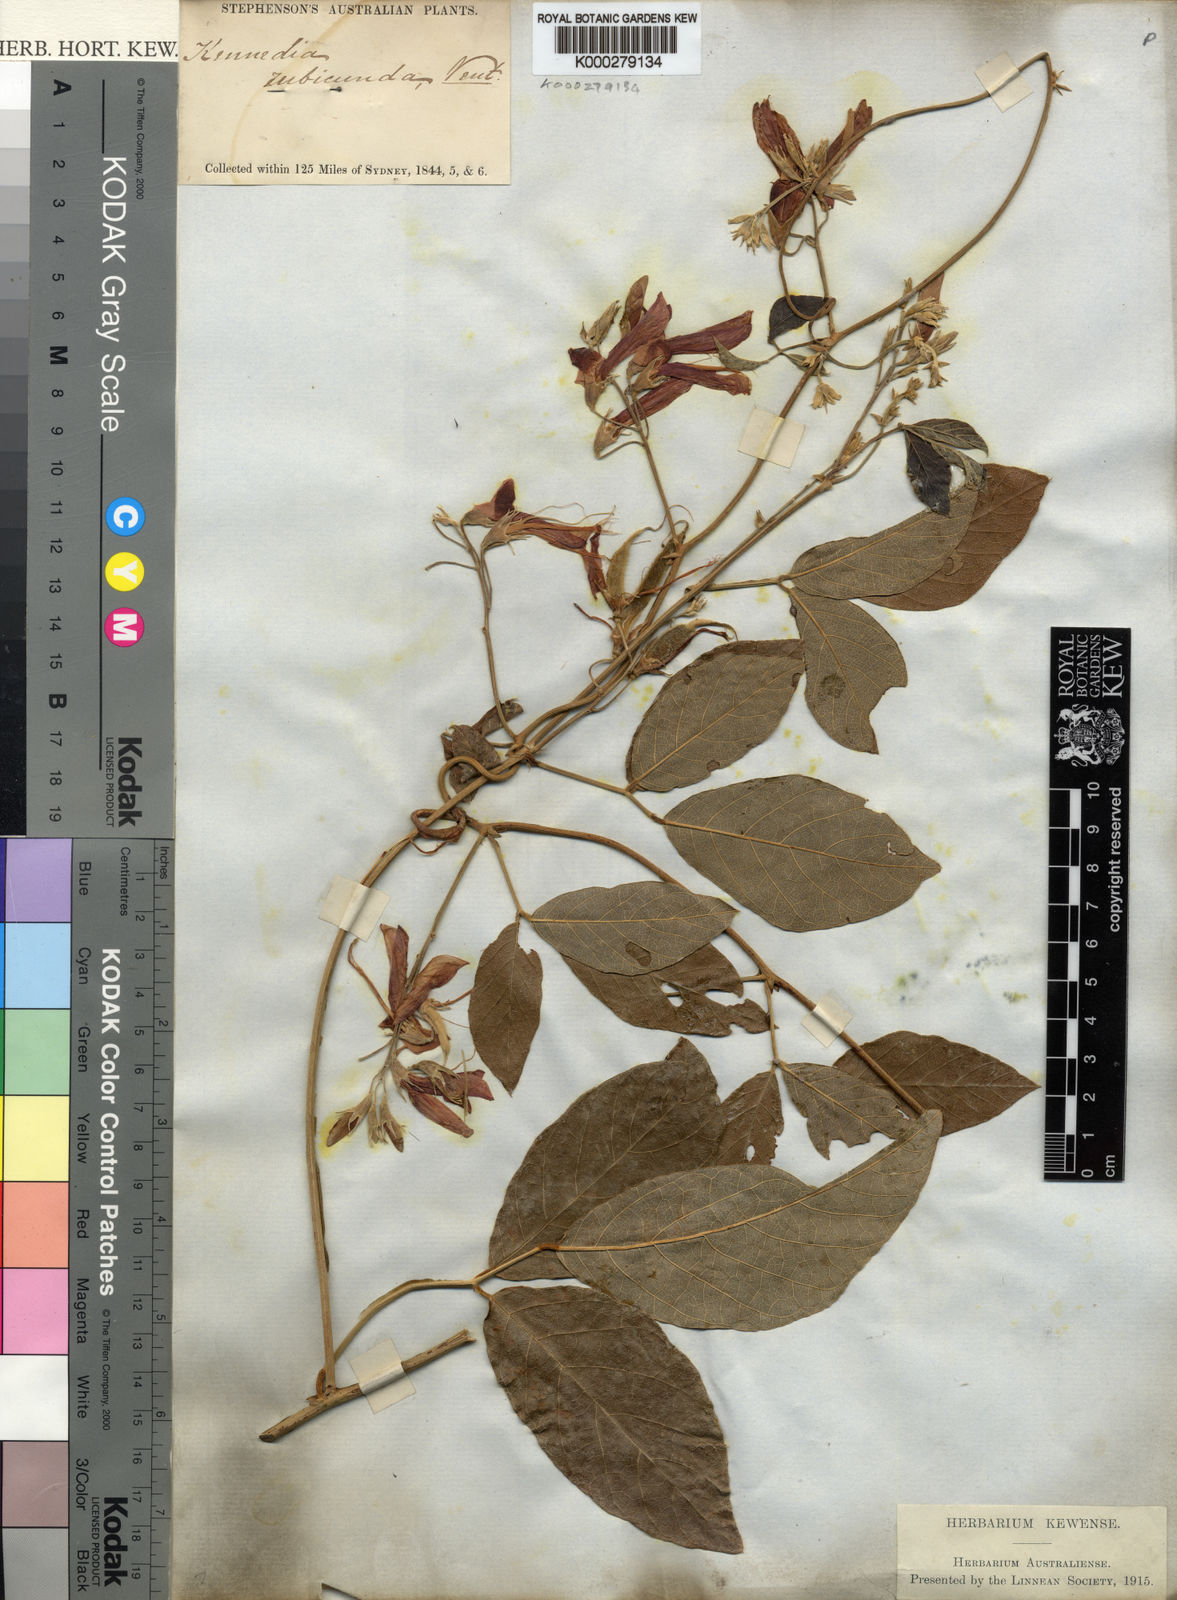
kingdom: Plantae
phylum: Tracheophyta
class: Magnoliopsida
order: Fabales
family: Fabaceae
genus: Kennedia
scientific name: Kennedia rubicunda
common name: Red kennedy-pea
